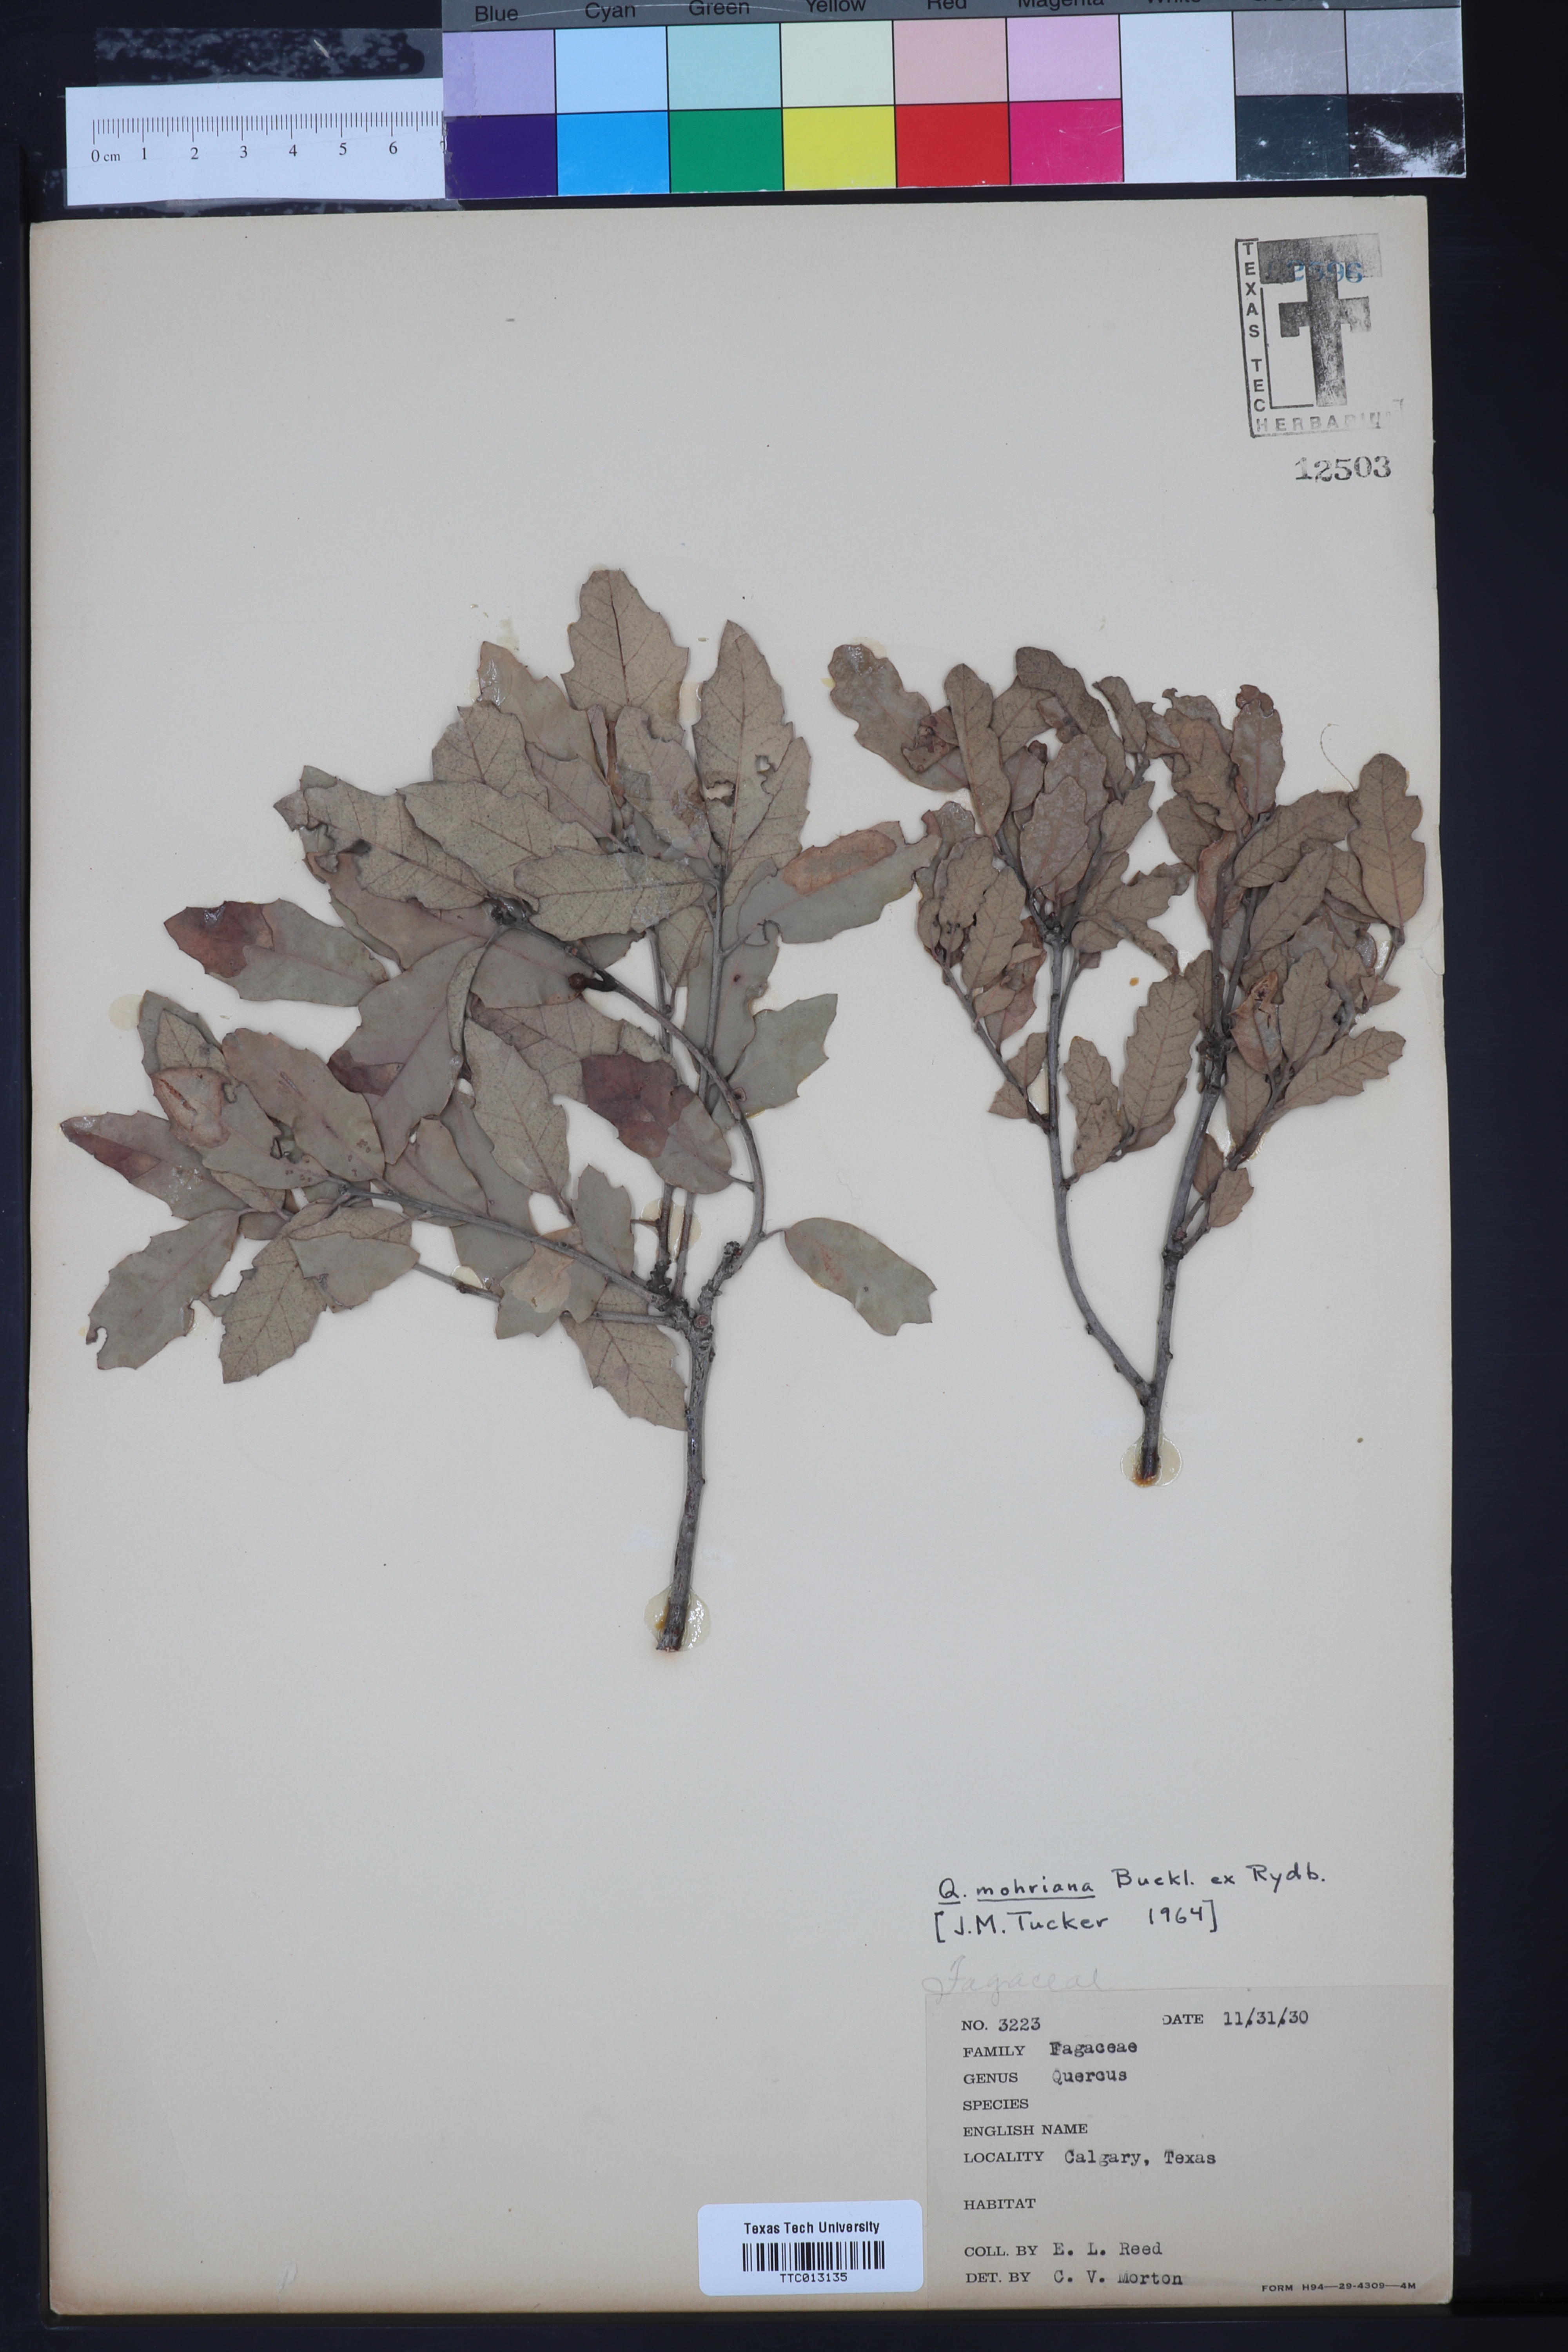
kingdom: Plantae
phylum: Tracheophyta
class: Magnoliopsida
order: Fagales
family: Fagaceae
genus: Quercus
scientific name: Quercus mohriana
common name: Mohr oak
